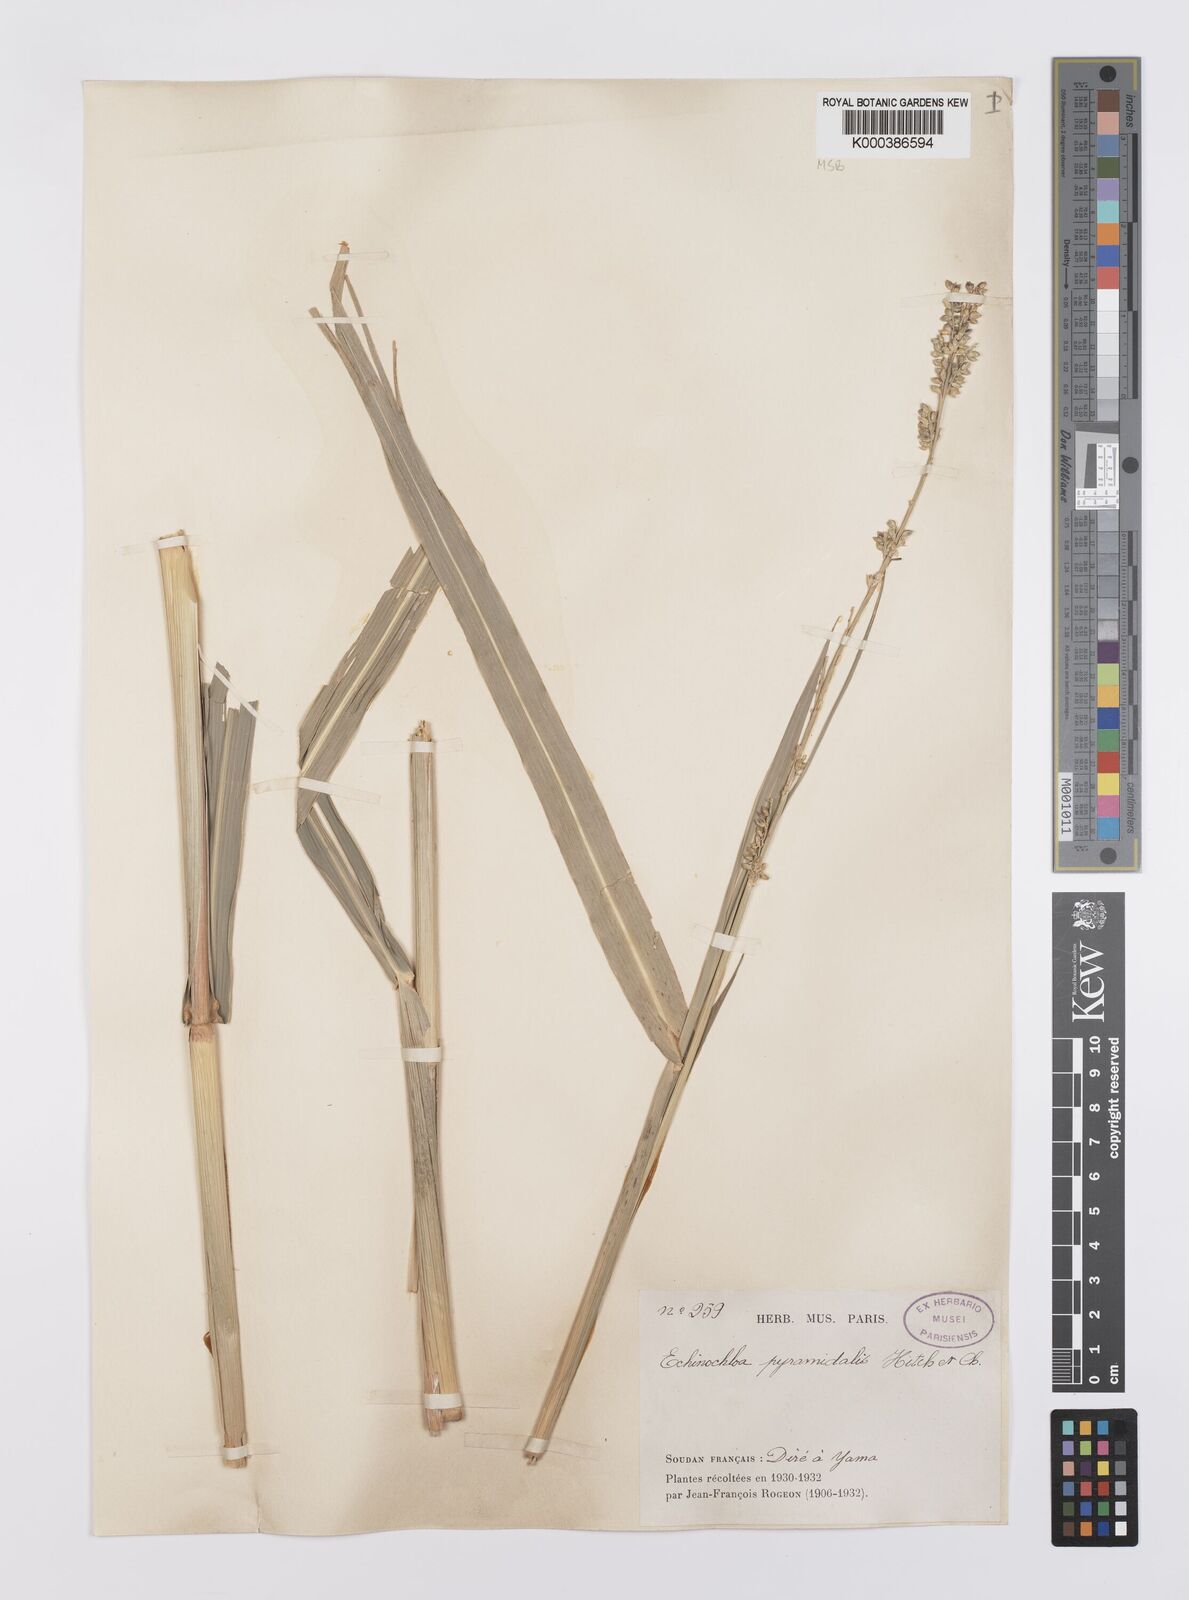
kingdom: Plantae
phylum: Tracheophyta
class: Liliopsida
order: Poales
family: Poaceae
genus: Echinochloa
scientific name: Echinochloa pyramidalis
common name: Antelope grass
